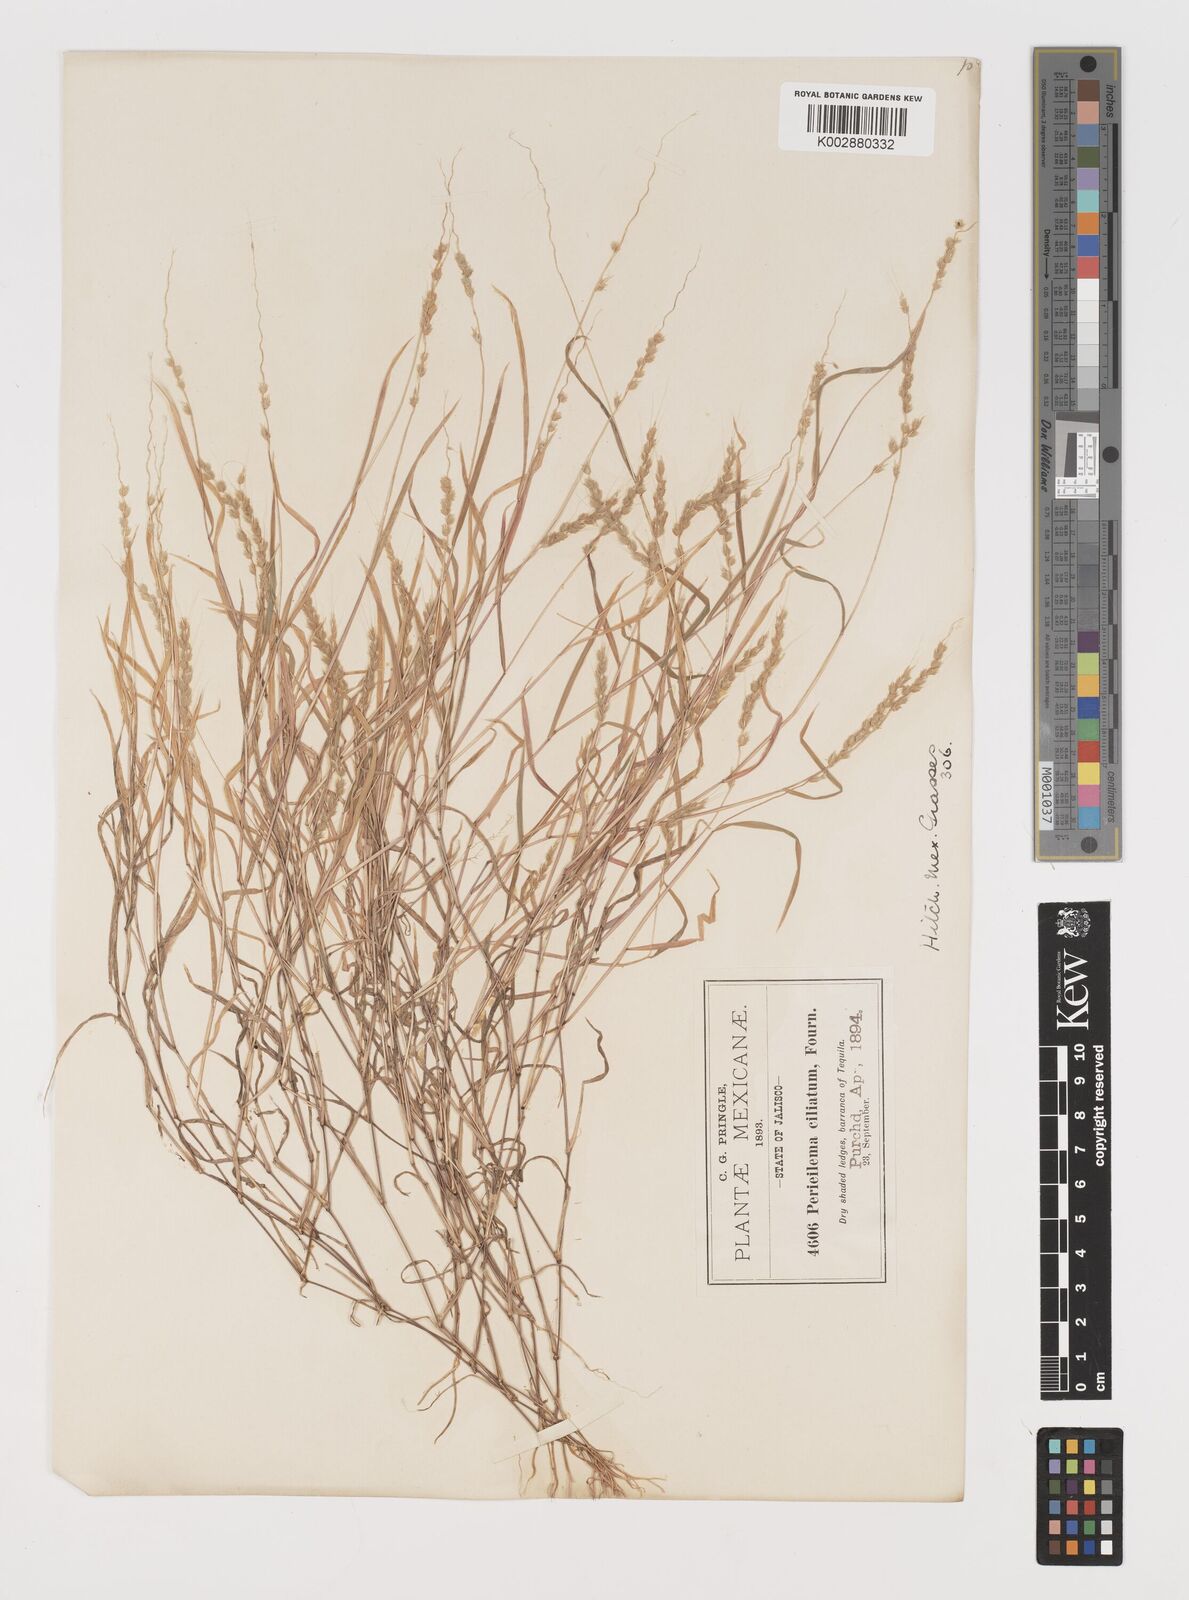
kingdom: Plantae
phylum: Tracheophyta
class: Liliopsida
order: Poales
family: Poaceae
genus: Muhlenbergia
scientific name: Muhlenbergia plumiseta
